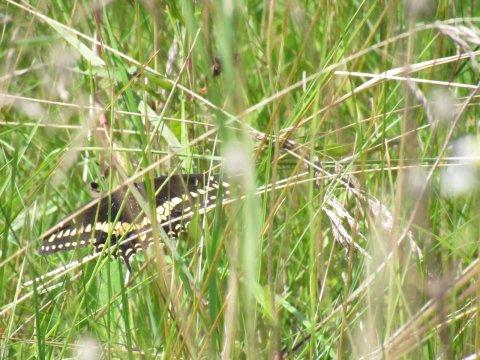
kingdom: Animalia
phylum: Arthropoda
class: Insecta
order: Lepidoptera
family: Papilionidae
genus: Papilio
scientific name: Papilio polyxenes
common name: Black Swallowtail
